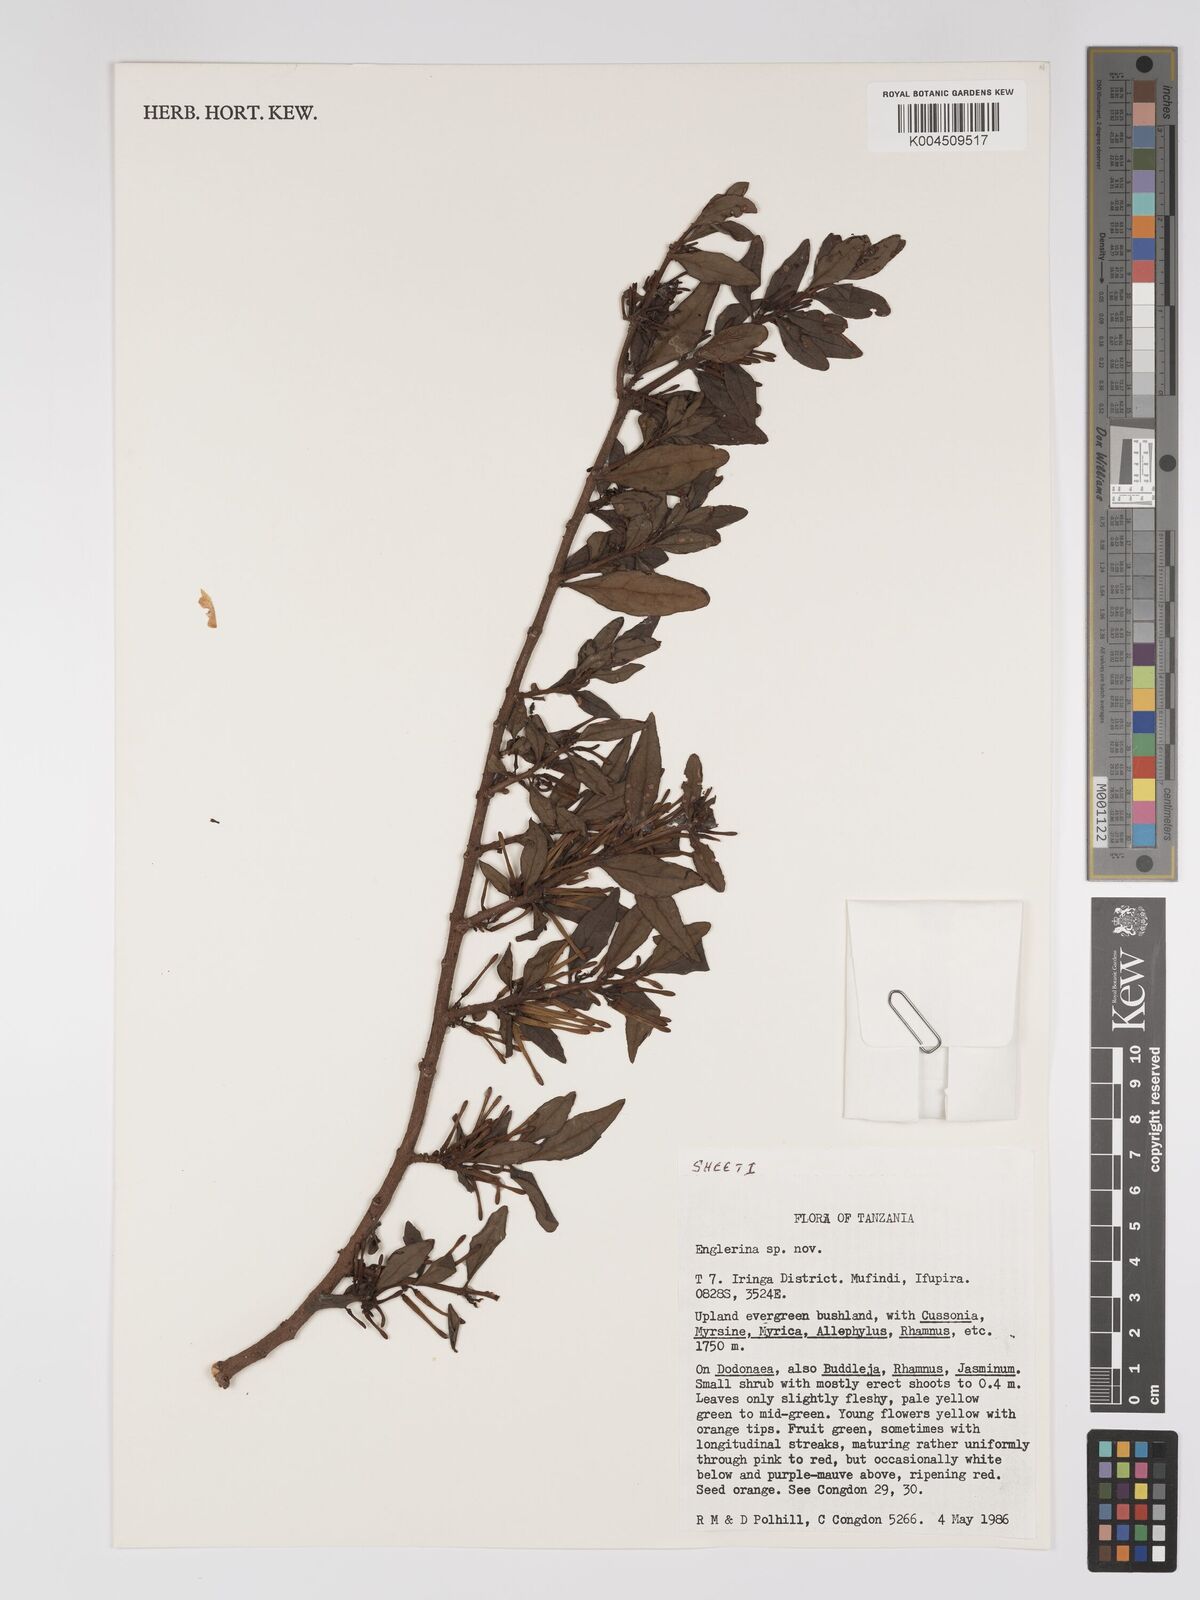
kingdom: Plantae
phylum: Tracheophyta
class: Magnoliopsida
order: Santalales
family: Loranthaceae
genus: Englerina
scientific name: Englerina inaequilatera
